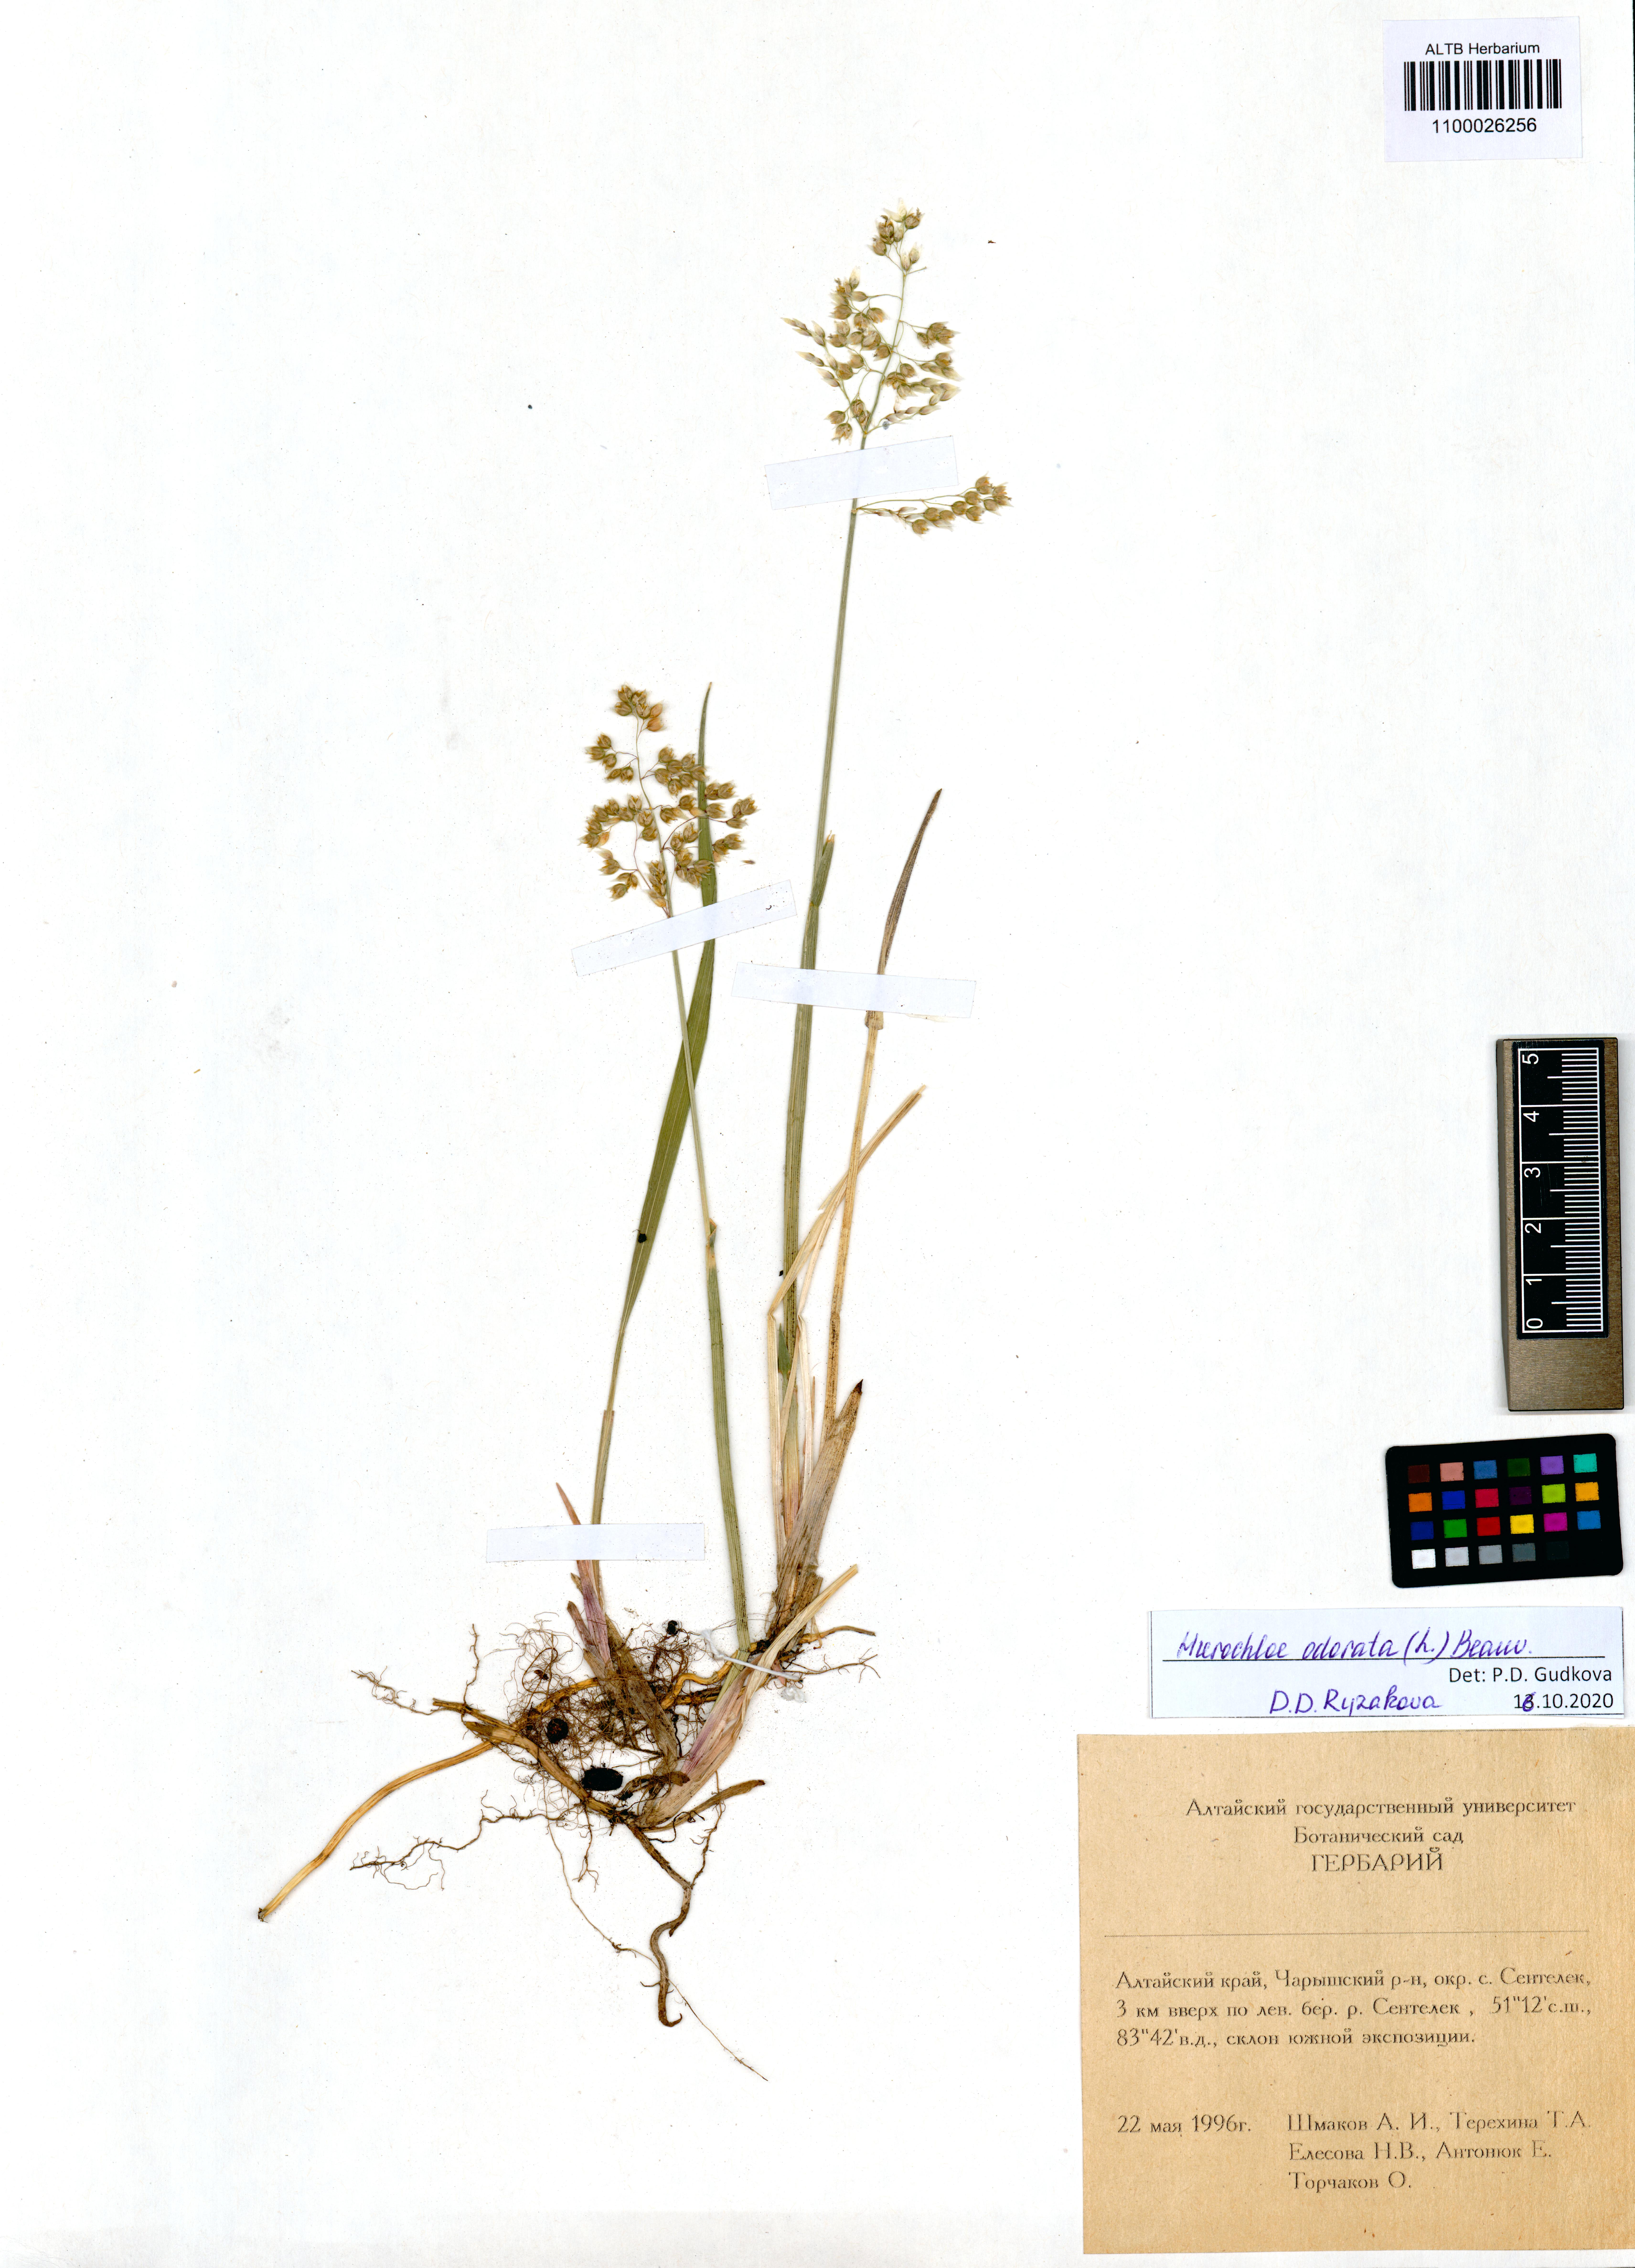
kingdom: Plantae
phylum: Tracheophyta
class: Liliopsida
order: Poales
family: Poaceae
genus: Anthoxanthum
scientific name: Anthoxanthum nitens
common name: Holy grass
